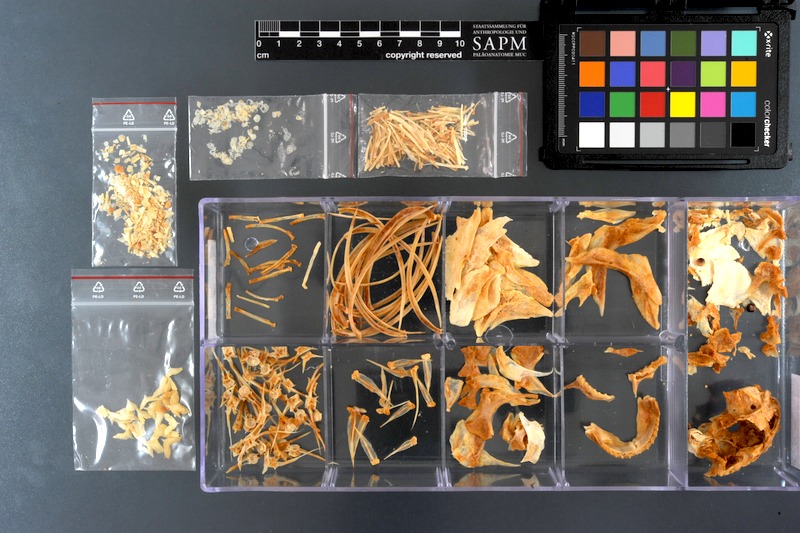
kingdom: Animalia
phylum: Chordata
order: Characiformes
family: Serrasalmidae
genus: Pygocentrus
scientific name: Pygocentrus nattereri
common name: Piranha
